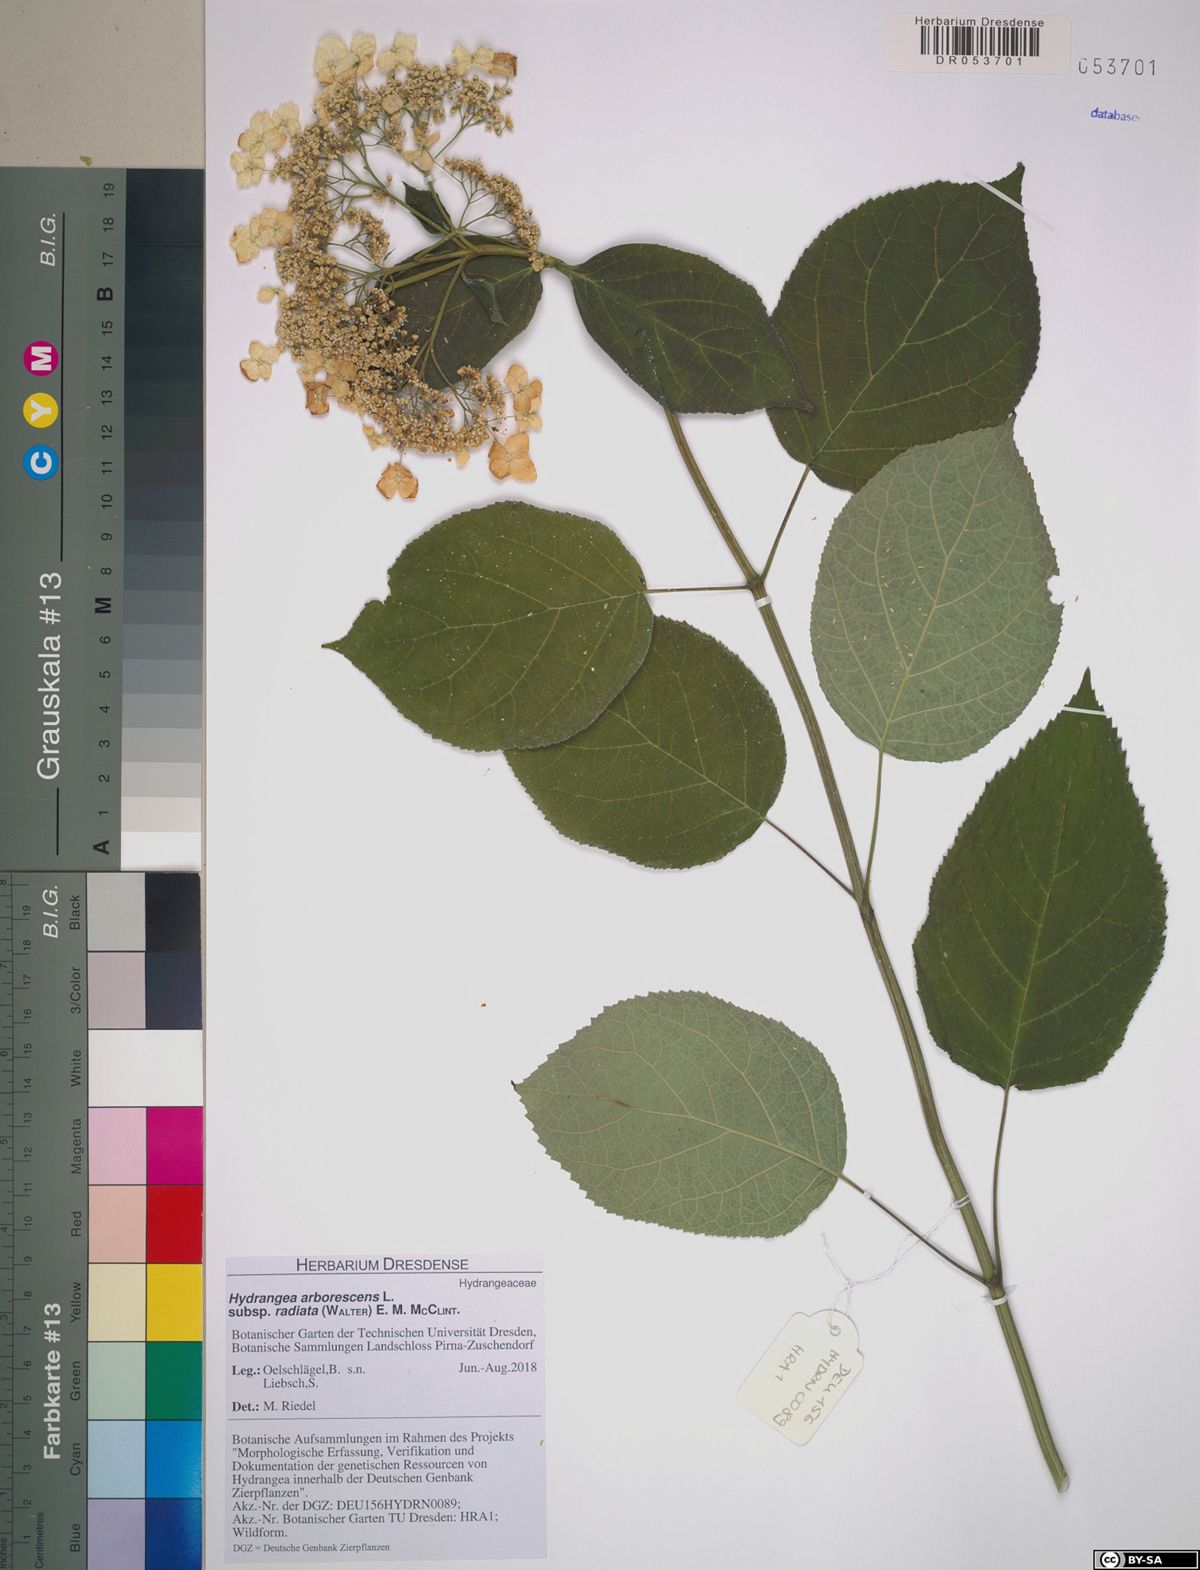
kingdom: Plantae
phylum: Tracheophyta
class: Magnoliopsida
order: Cornales
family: Hydrangeaceae
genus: Hydrangea
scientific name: Hydrangea radiata
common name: Silverleaf hydrangea
